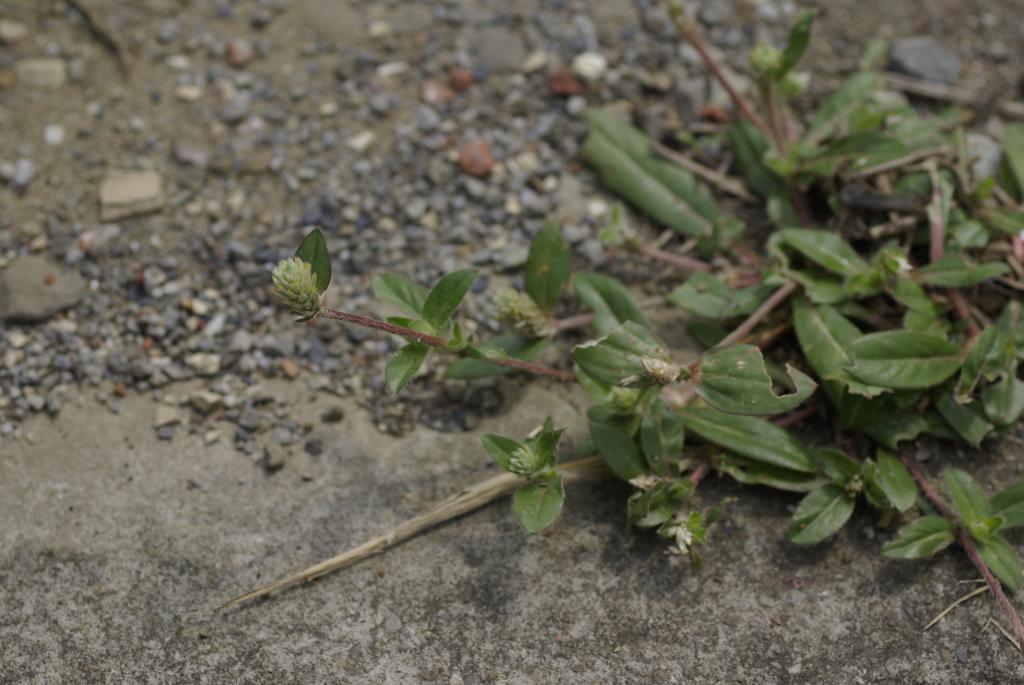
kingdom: Plantae
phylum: Tracheophyta
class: Magnoliopsida
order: Caryophyllales
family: Amaranthaceae
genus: Gomphrena
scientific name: Gomphrena celosioides
